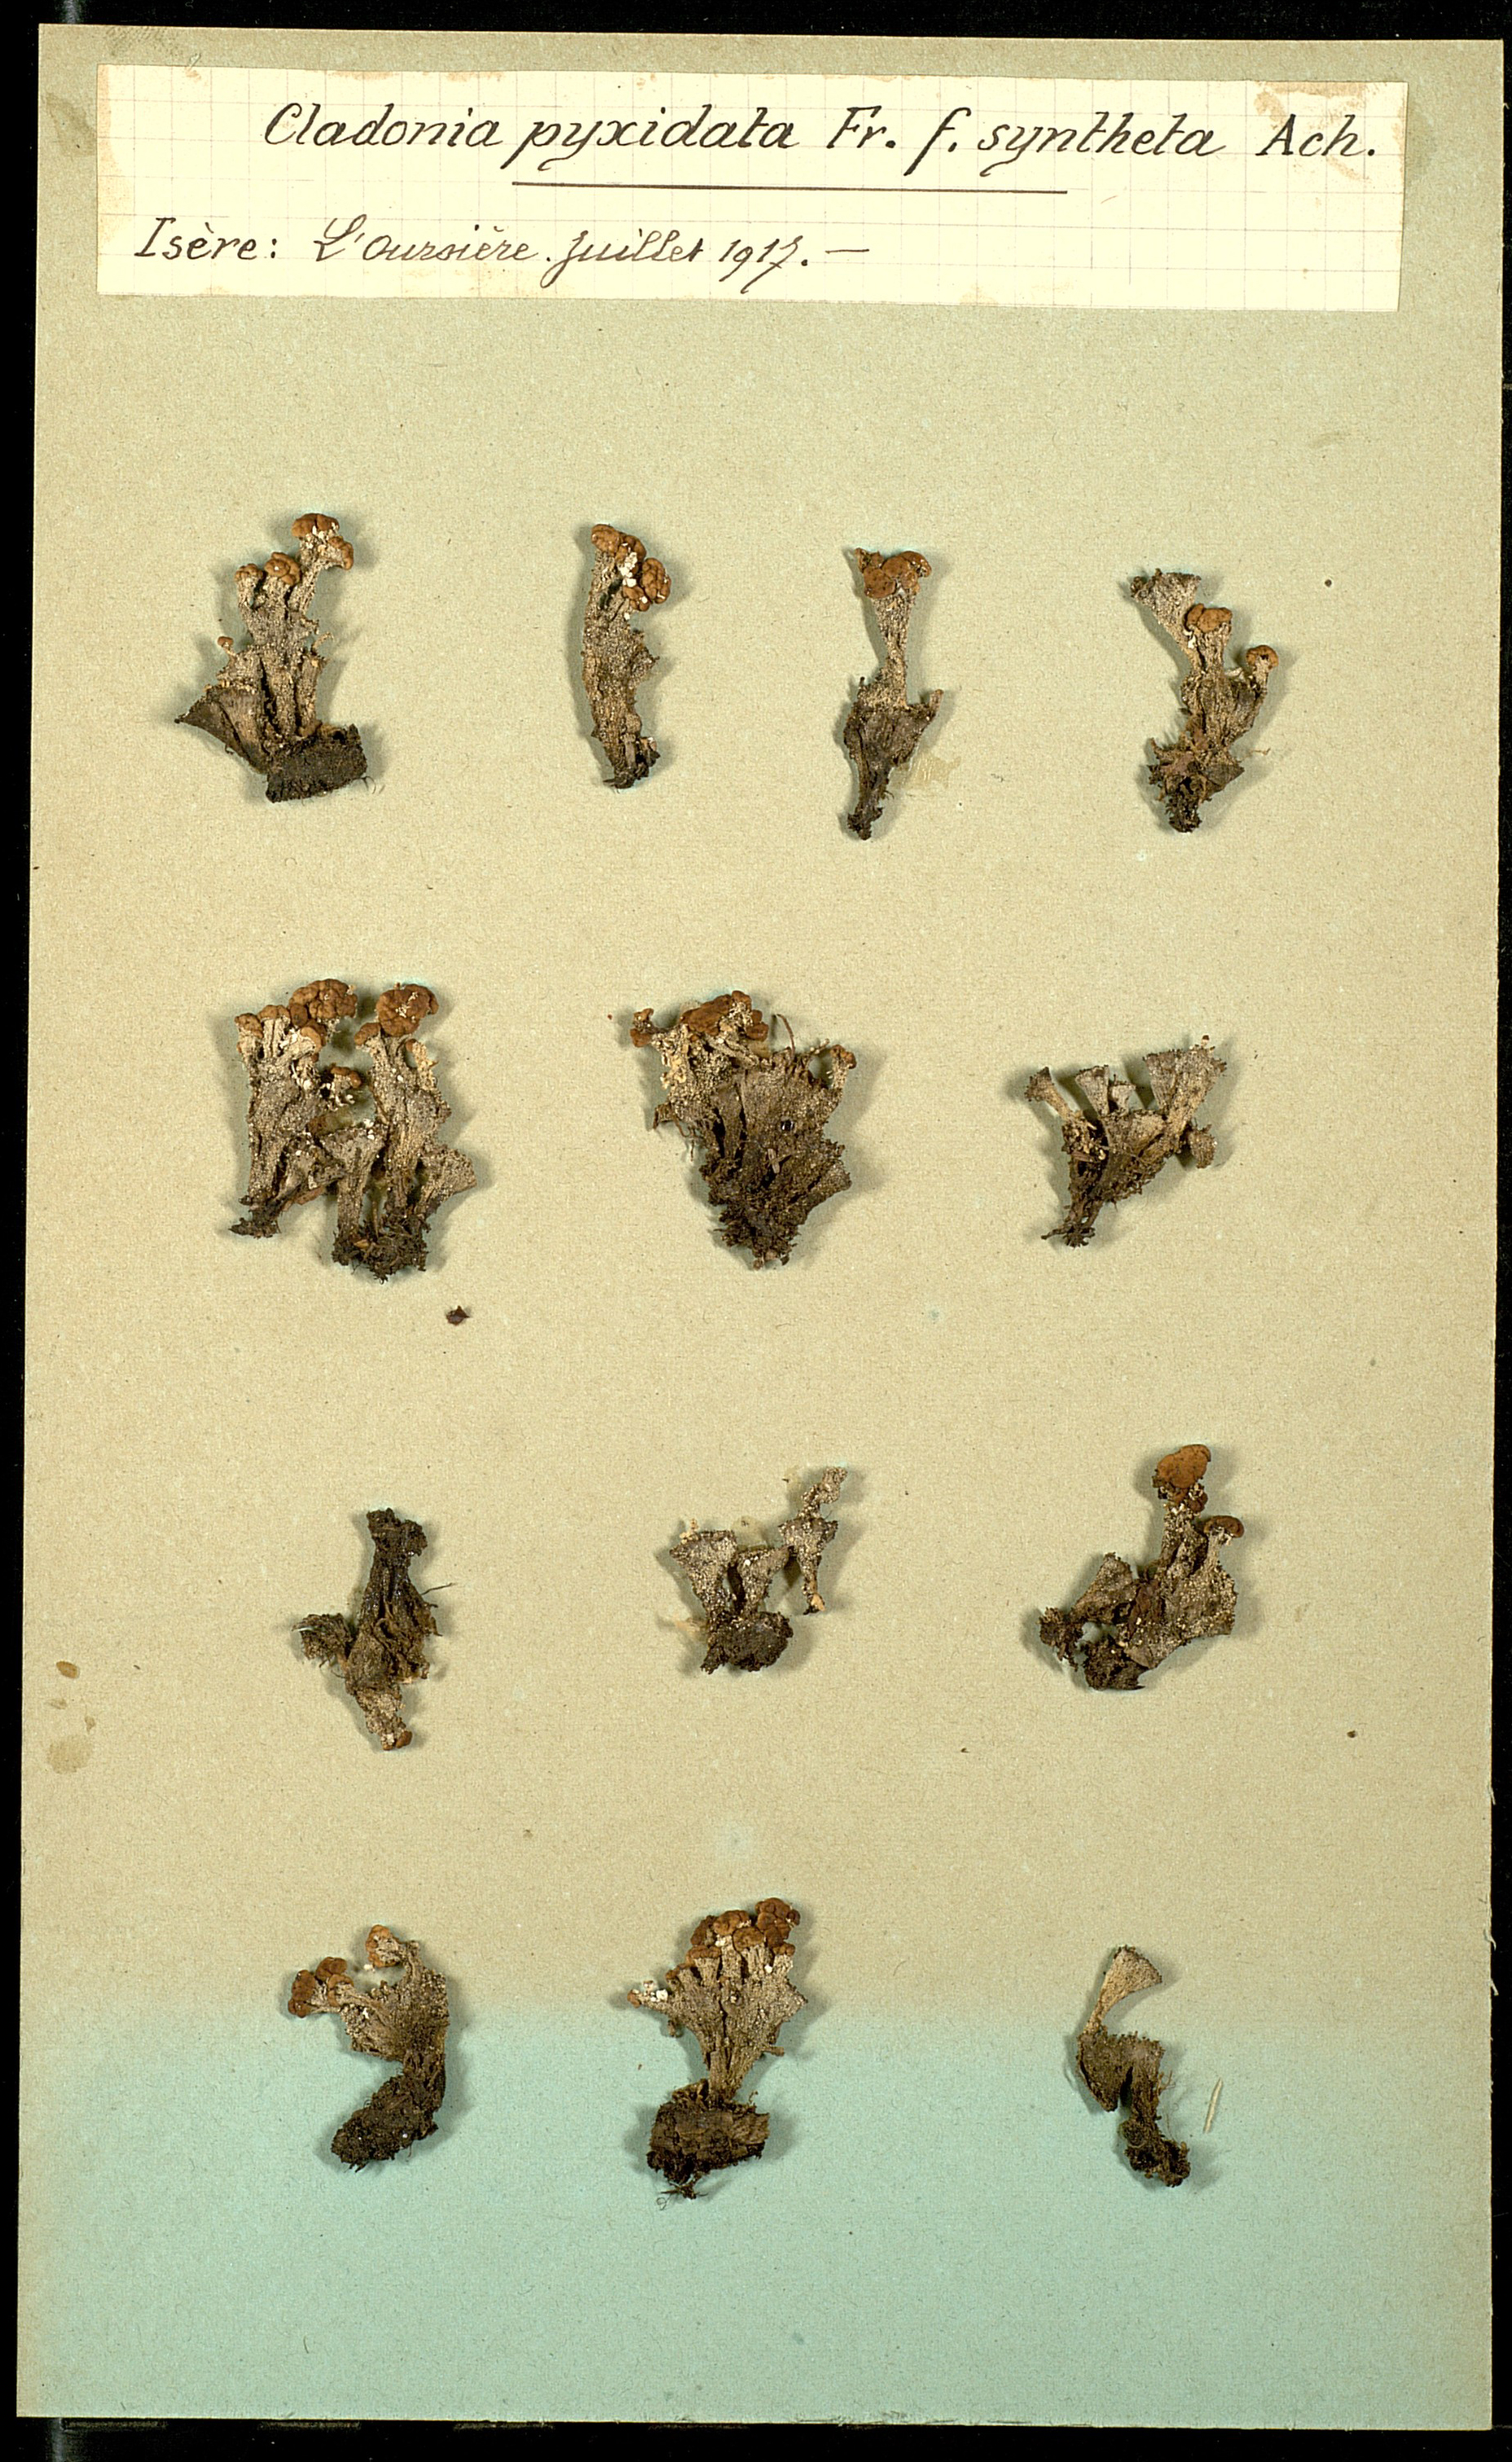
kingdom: Fungi
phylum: Ascomycota
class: Lecanoromycetes
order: Lecanorales
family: Cladoniaceae
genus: Cladonia
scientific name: Cladonia pyxidata
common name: Pebbled pixie cup
